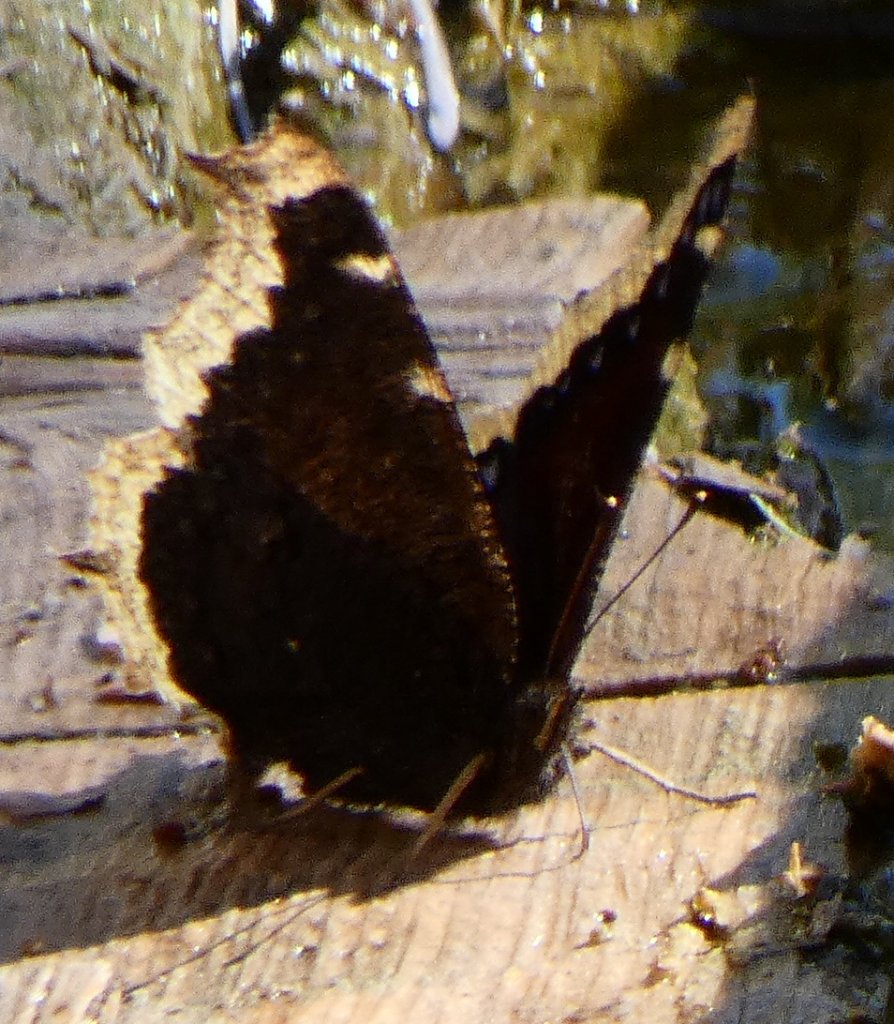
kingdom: Animalia
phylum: Arthropoda
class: Insecta
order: Lepidoptera
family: Nymphalidae
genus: Nymphalis
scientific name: Nymphalis antiopa
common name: Mourning Cloak
